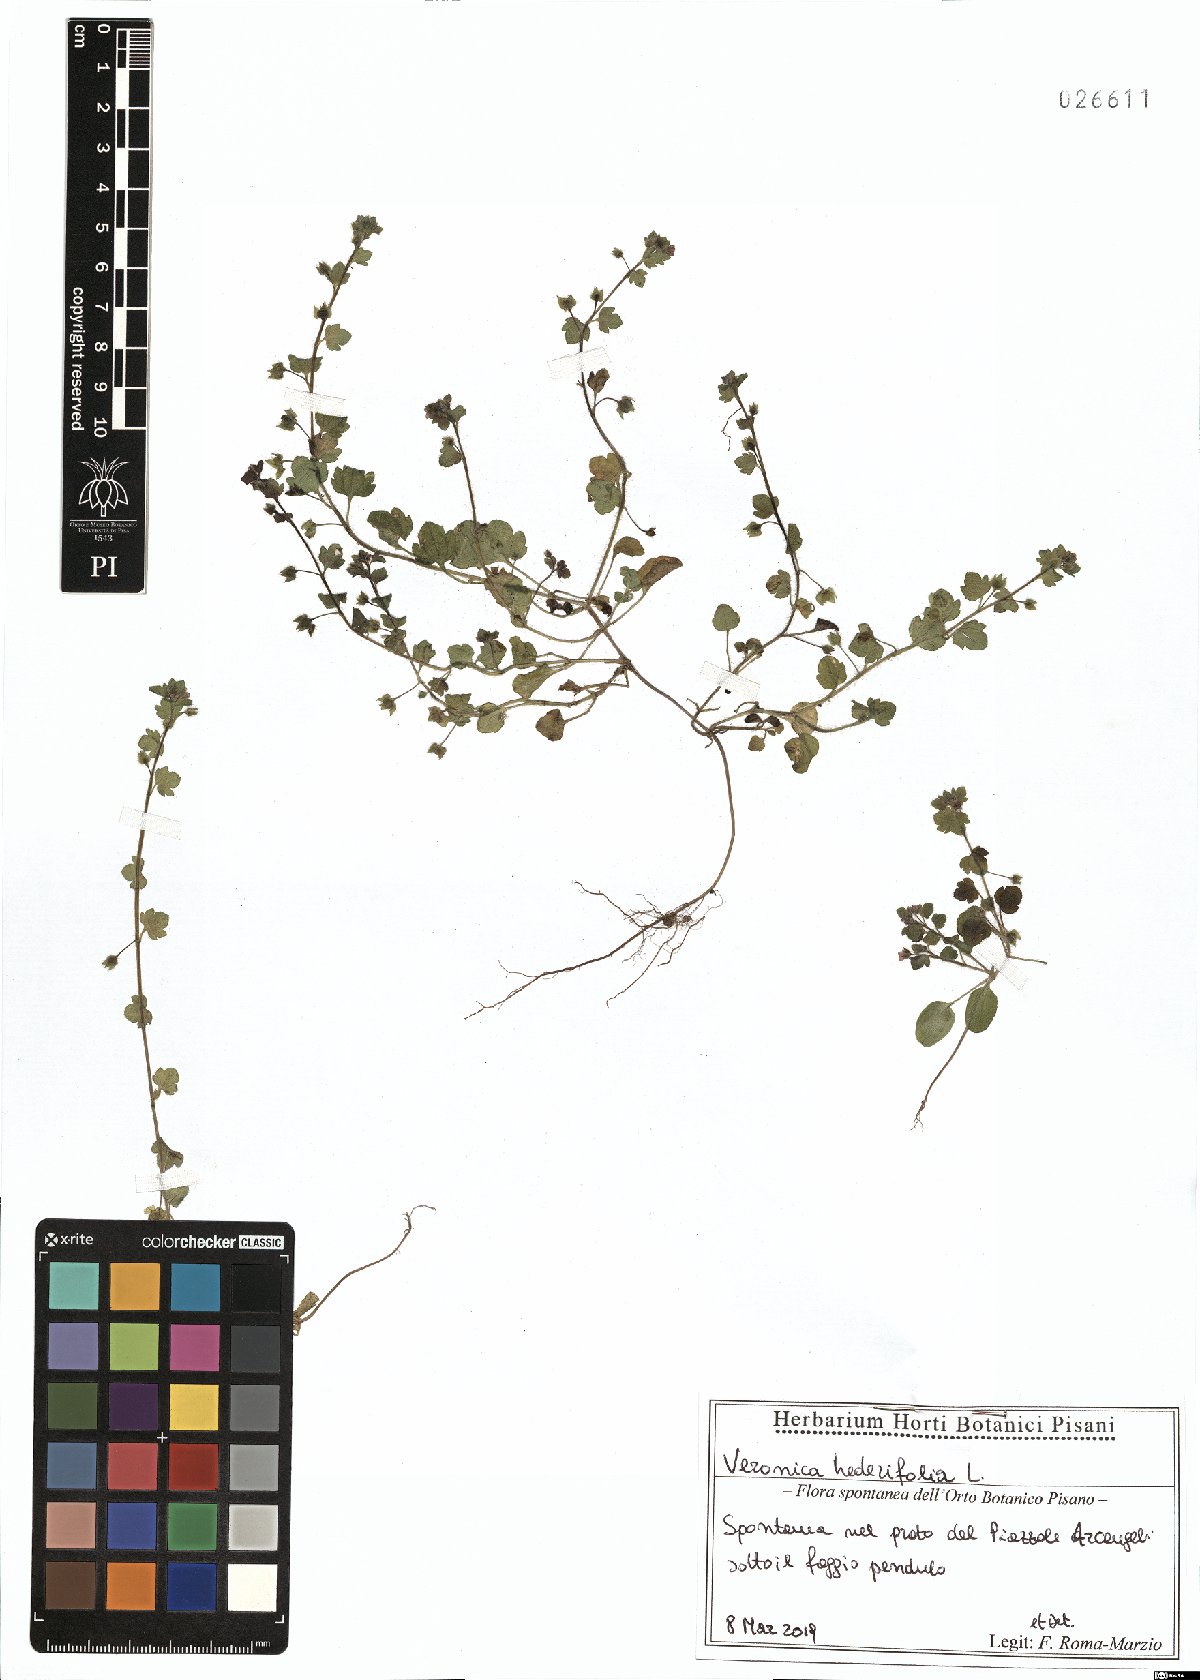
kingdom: Plantae
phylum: Tracheophyta
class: Magnoliopsida
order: Lamiales
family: Plantaginaceae
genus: Veronica
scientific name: Veronica hederifolia
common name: Ivy-leaved speedwell
